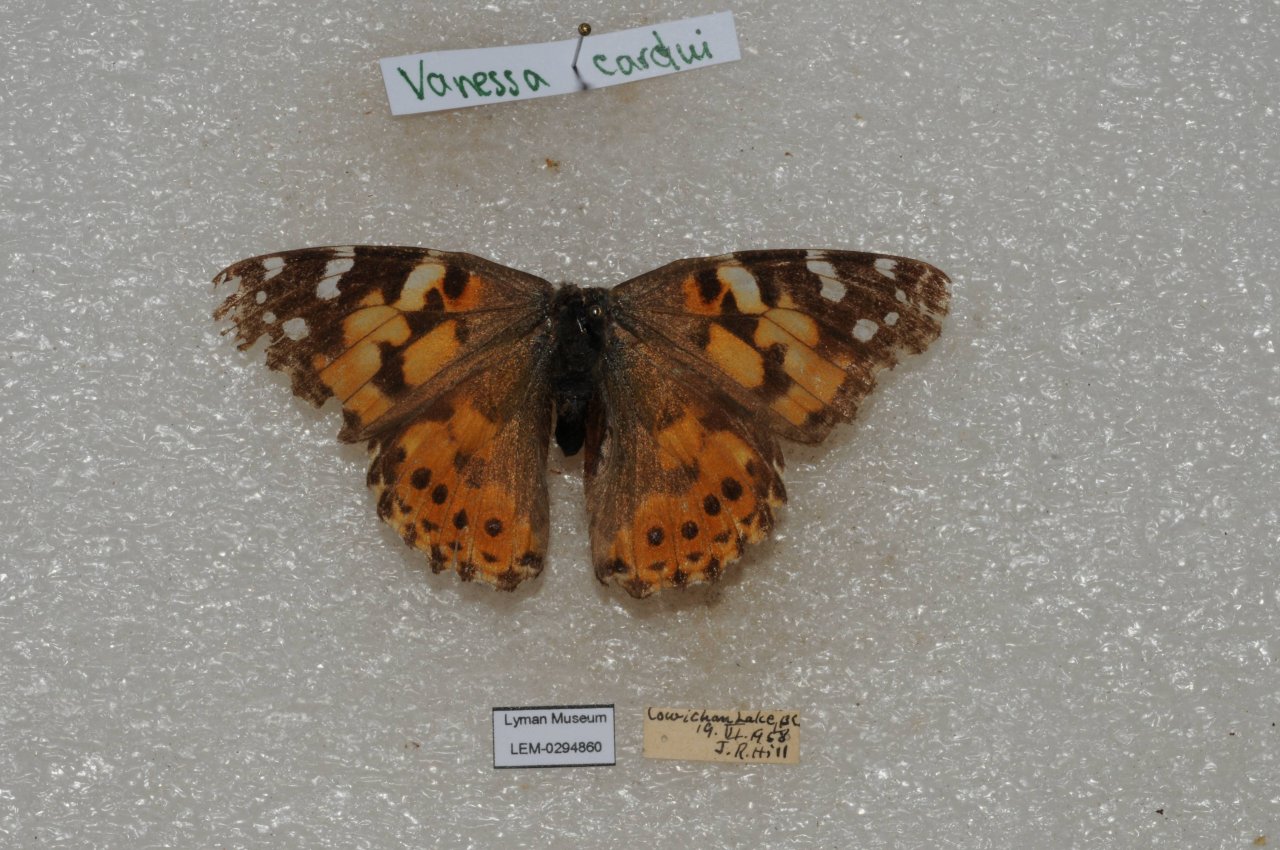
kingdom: Animalia
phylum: Arthropoda
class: Insecta
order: Lepidoptera
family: Nymphalidae
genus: Vanessa
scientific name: Vanessa cardui
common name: Painted Lady
